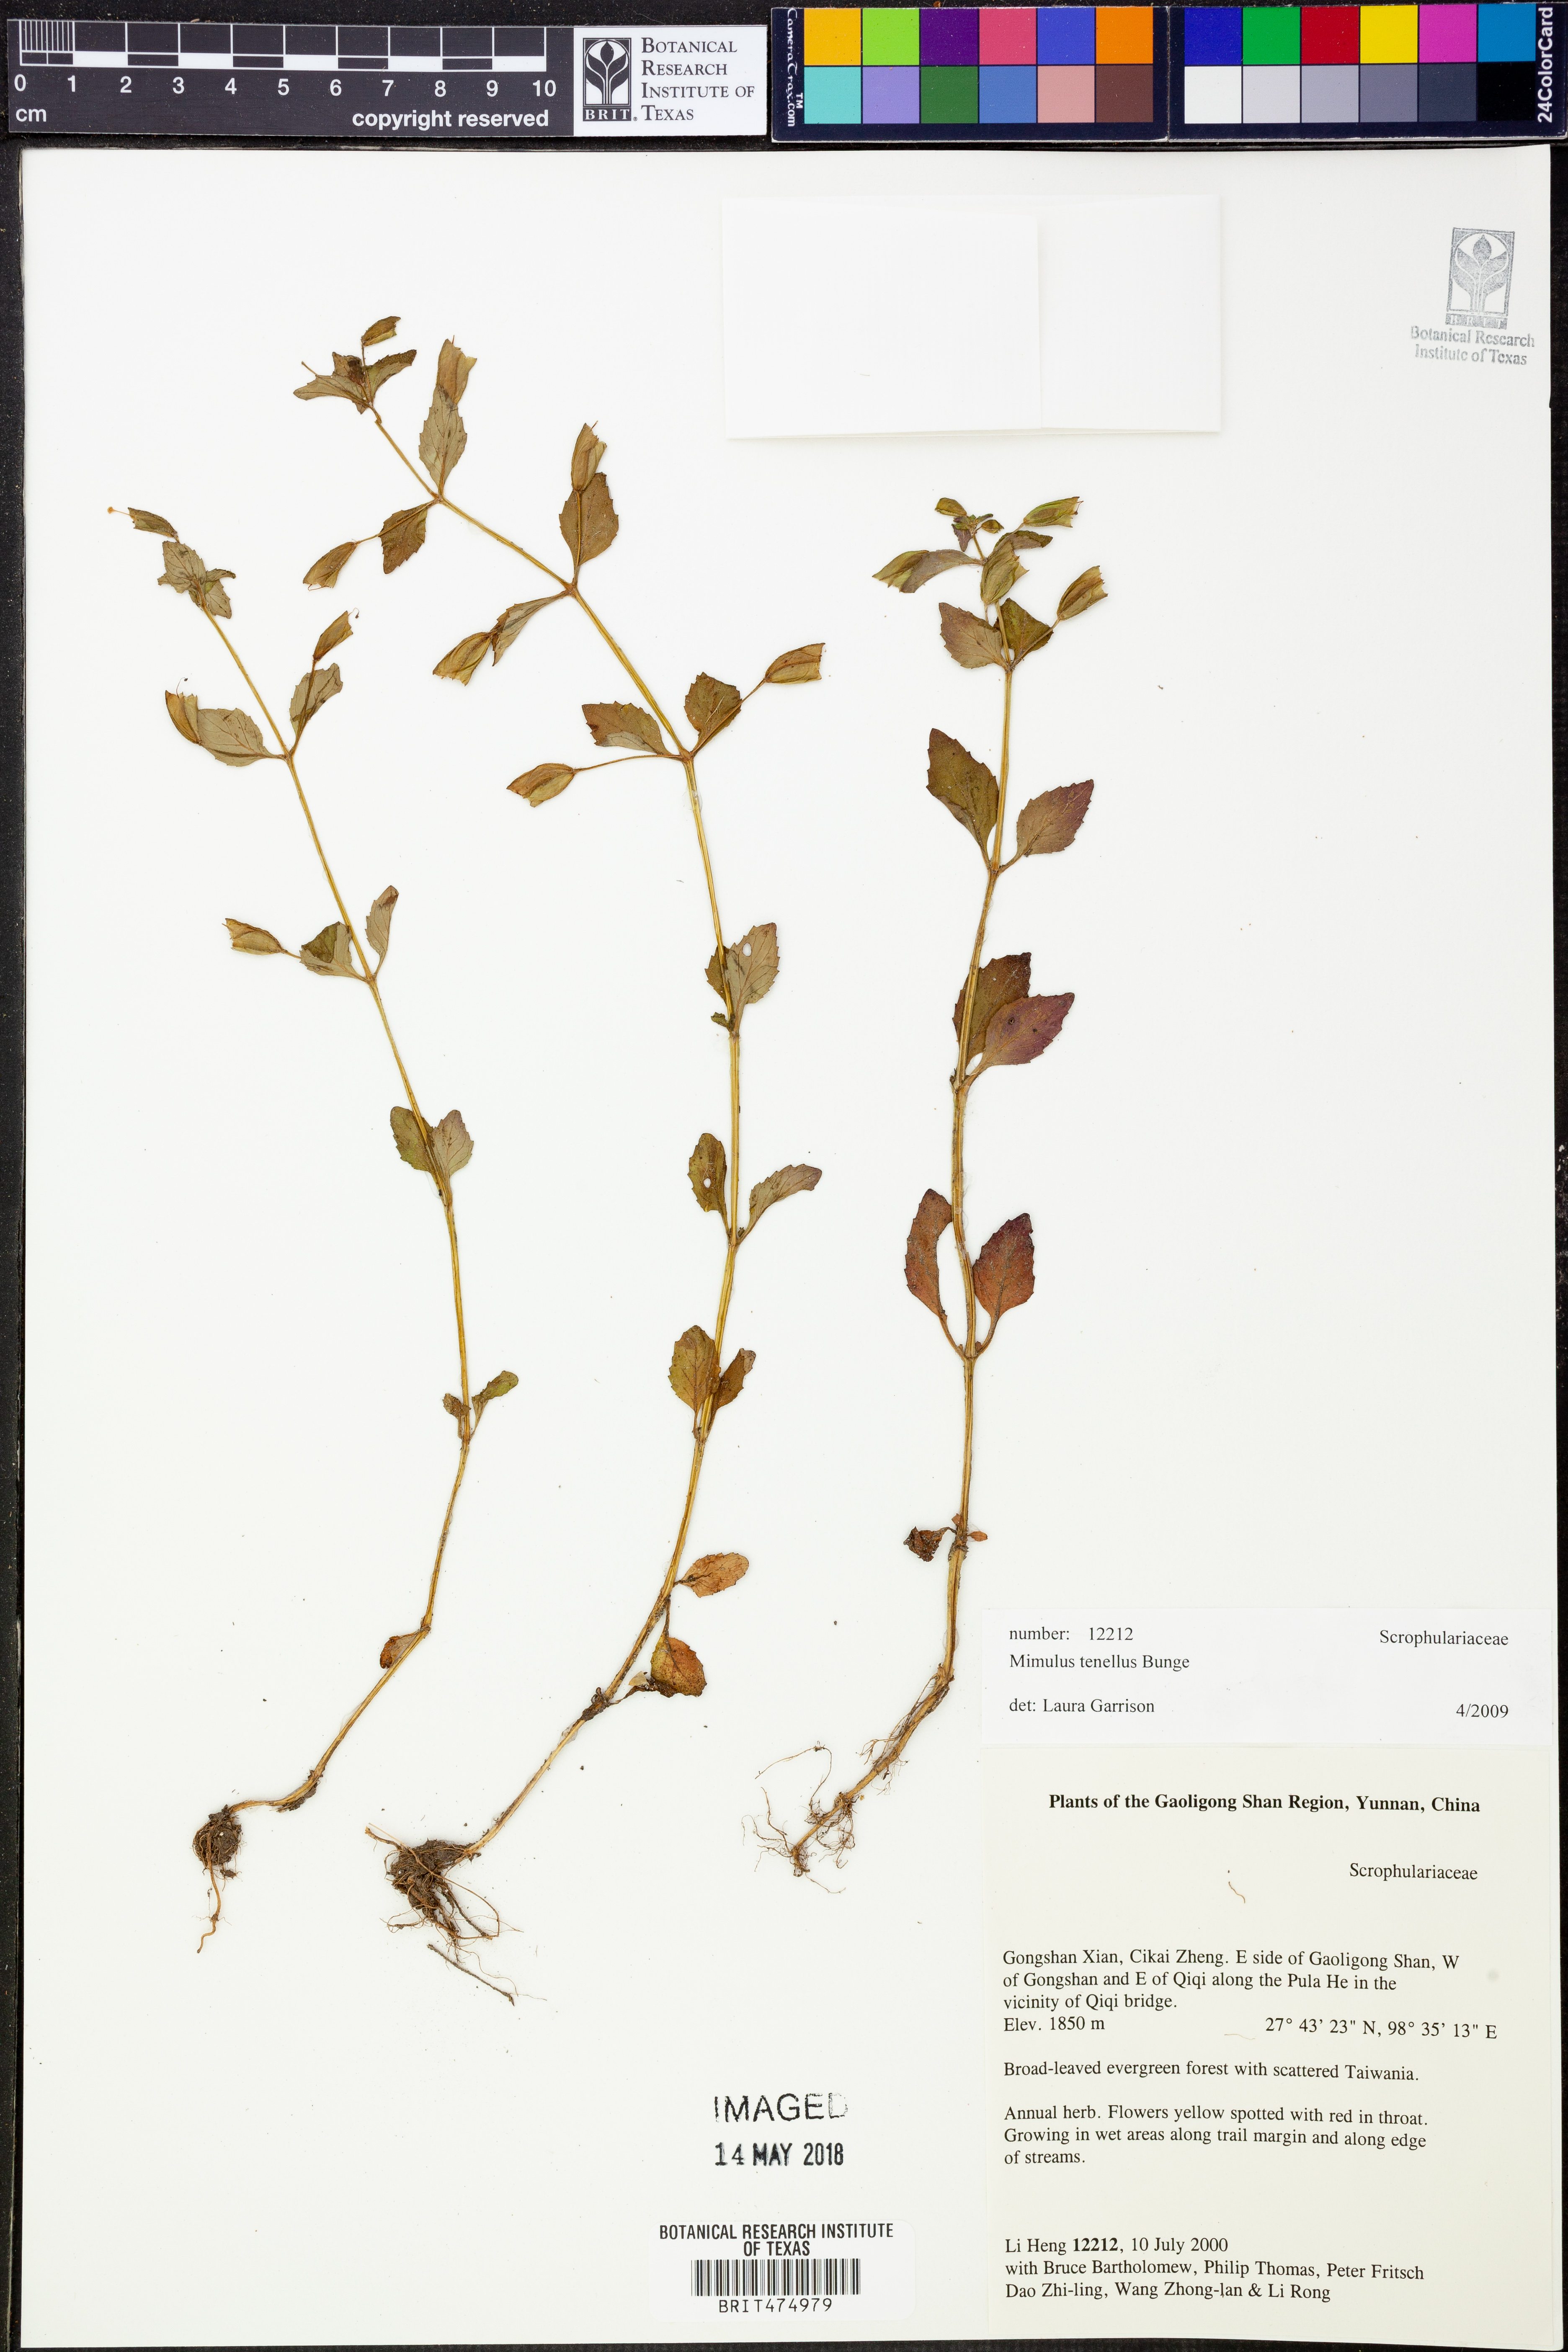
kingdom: Plantae
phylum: Tracheophyta
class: Magnoliopsida
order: Lamiales
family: Phrymaceae
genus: Erythranthe
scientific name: Erythranthe microphylla
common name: Bentham's monkeyflower
